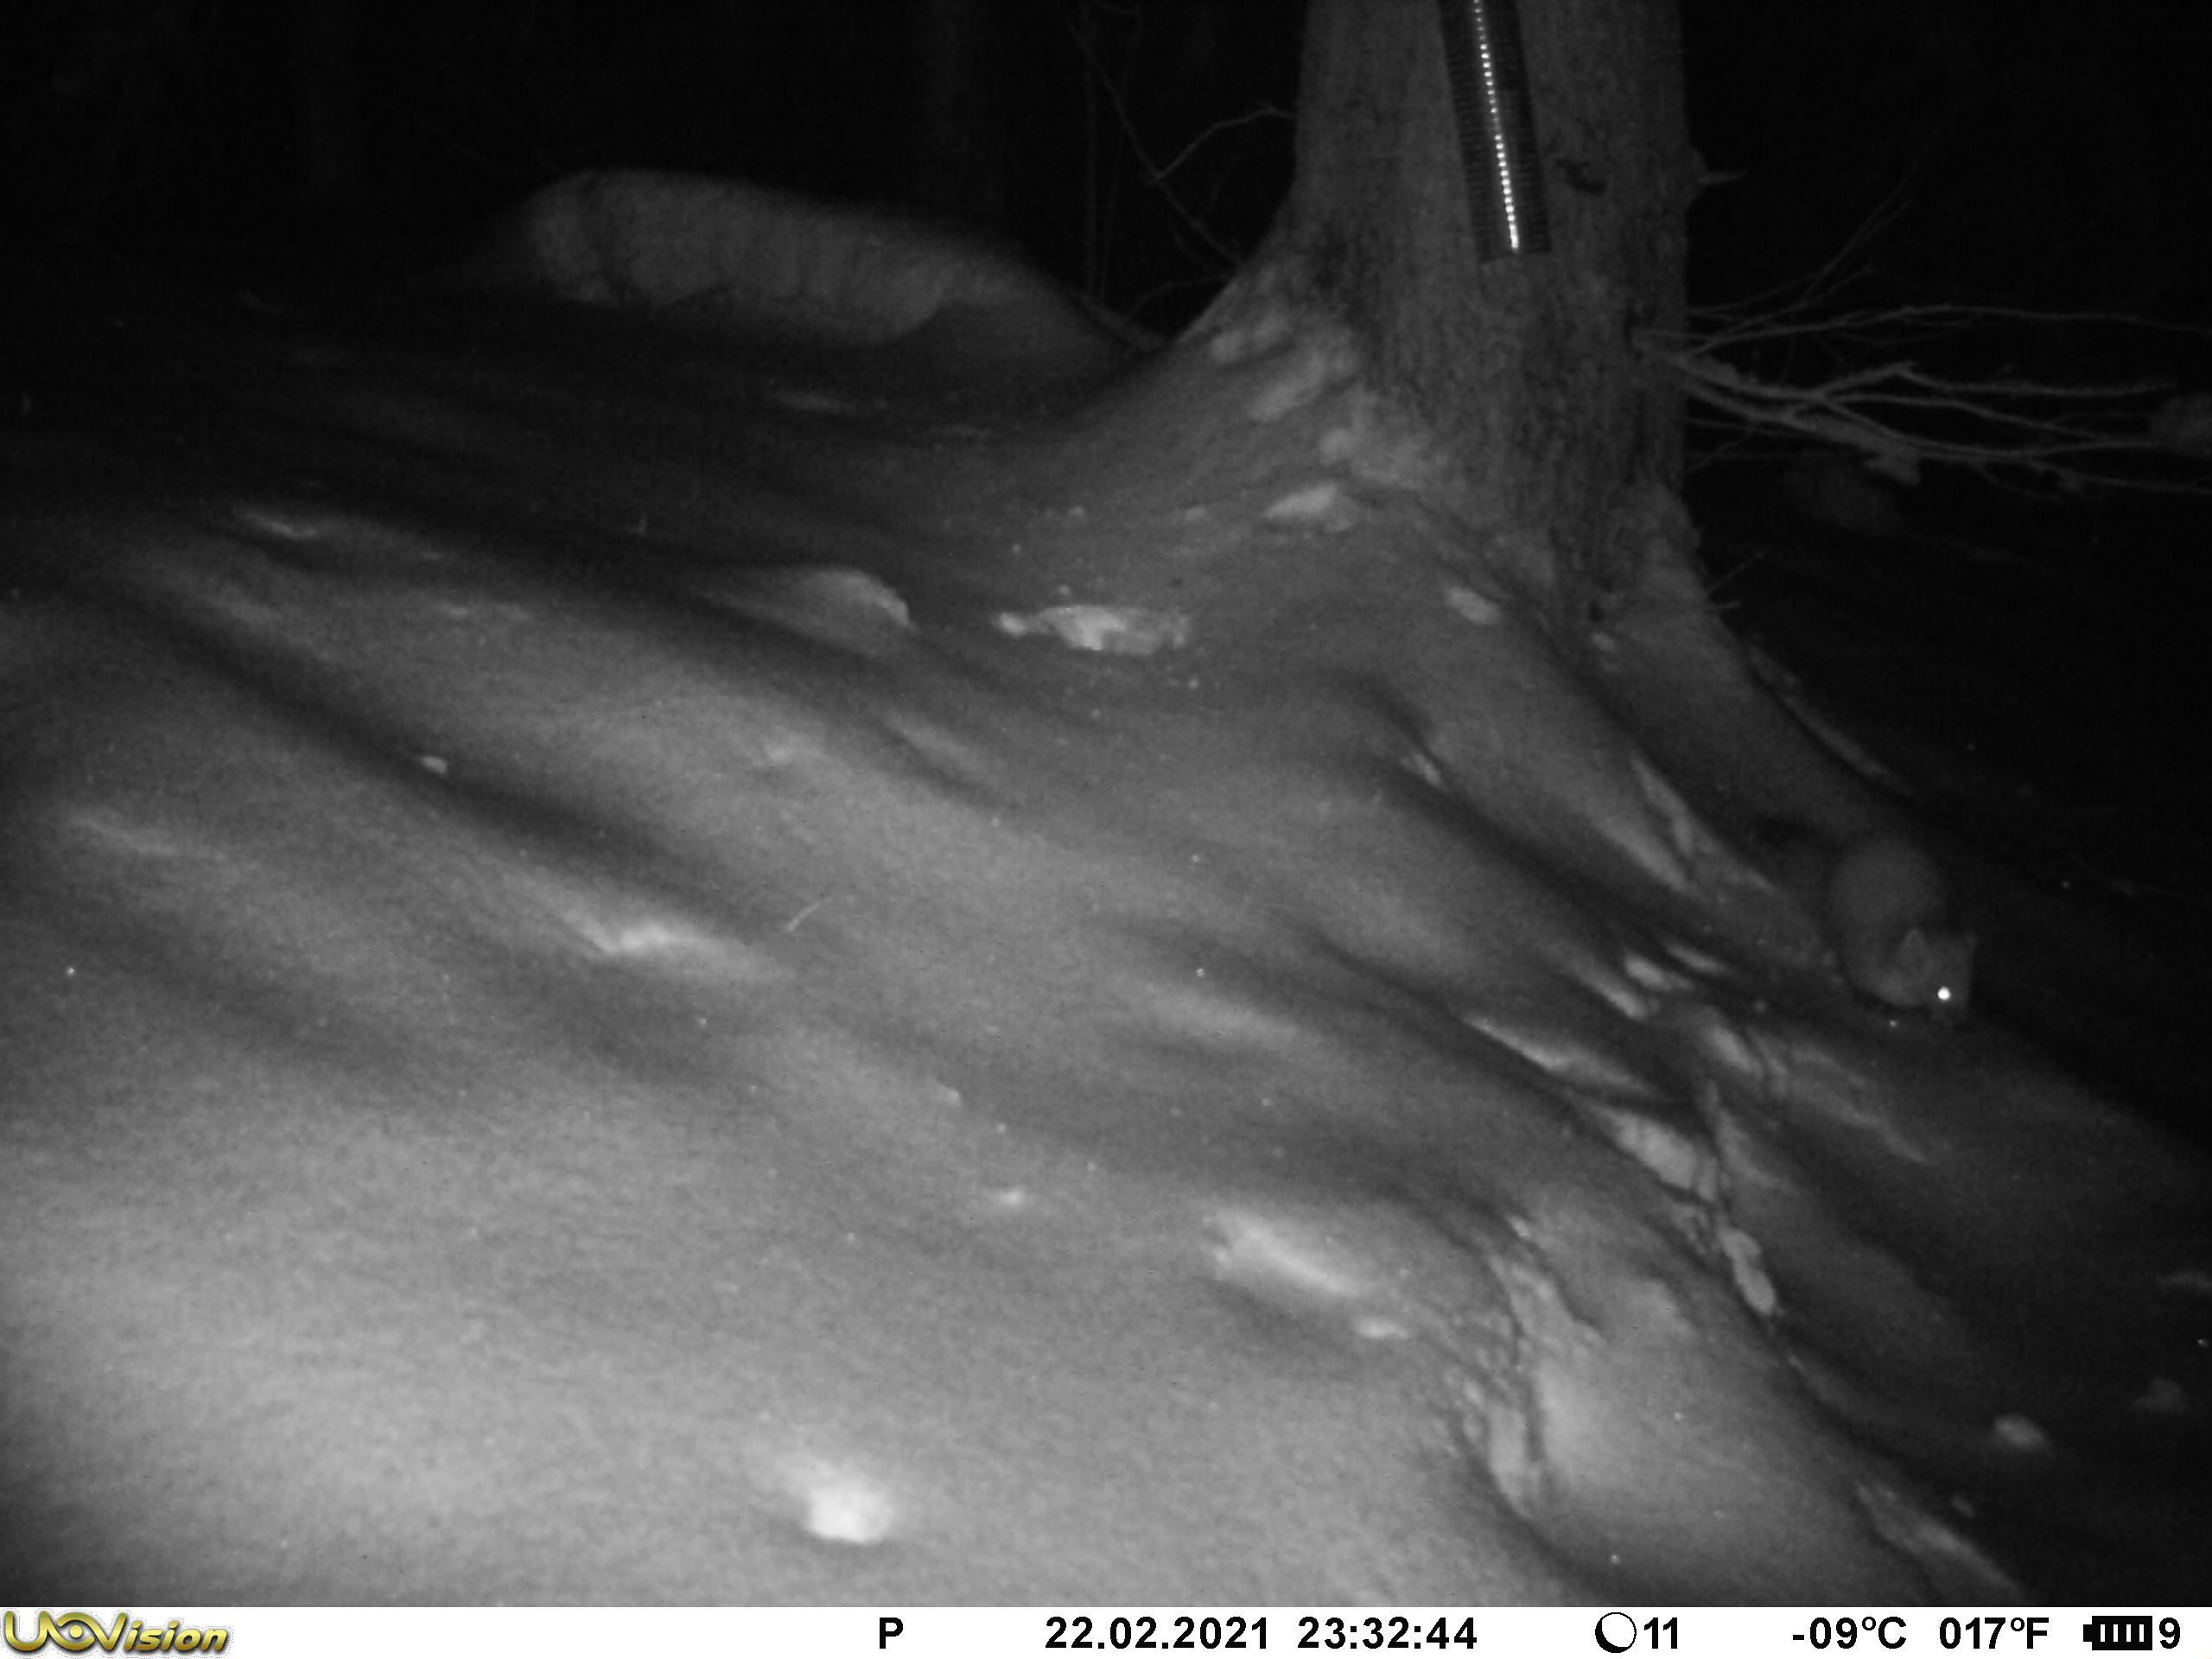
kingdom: Animalia
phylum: Chordata
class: Mammalia
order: Carnivora
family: Mustelidae
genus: Martes
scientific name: Martes martes
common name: European pine marten
